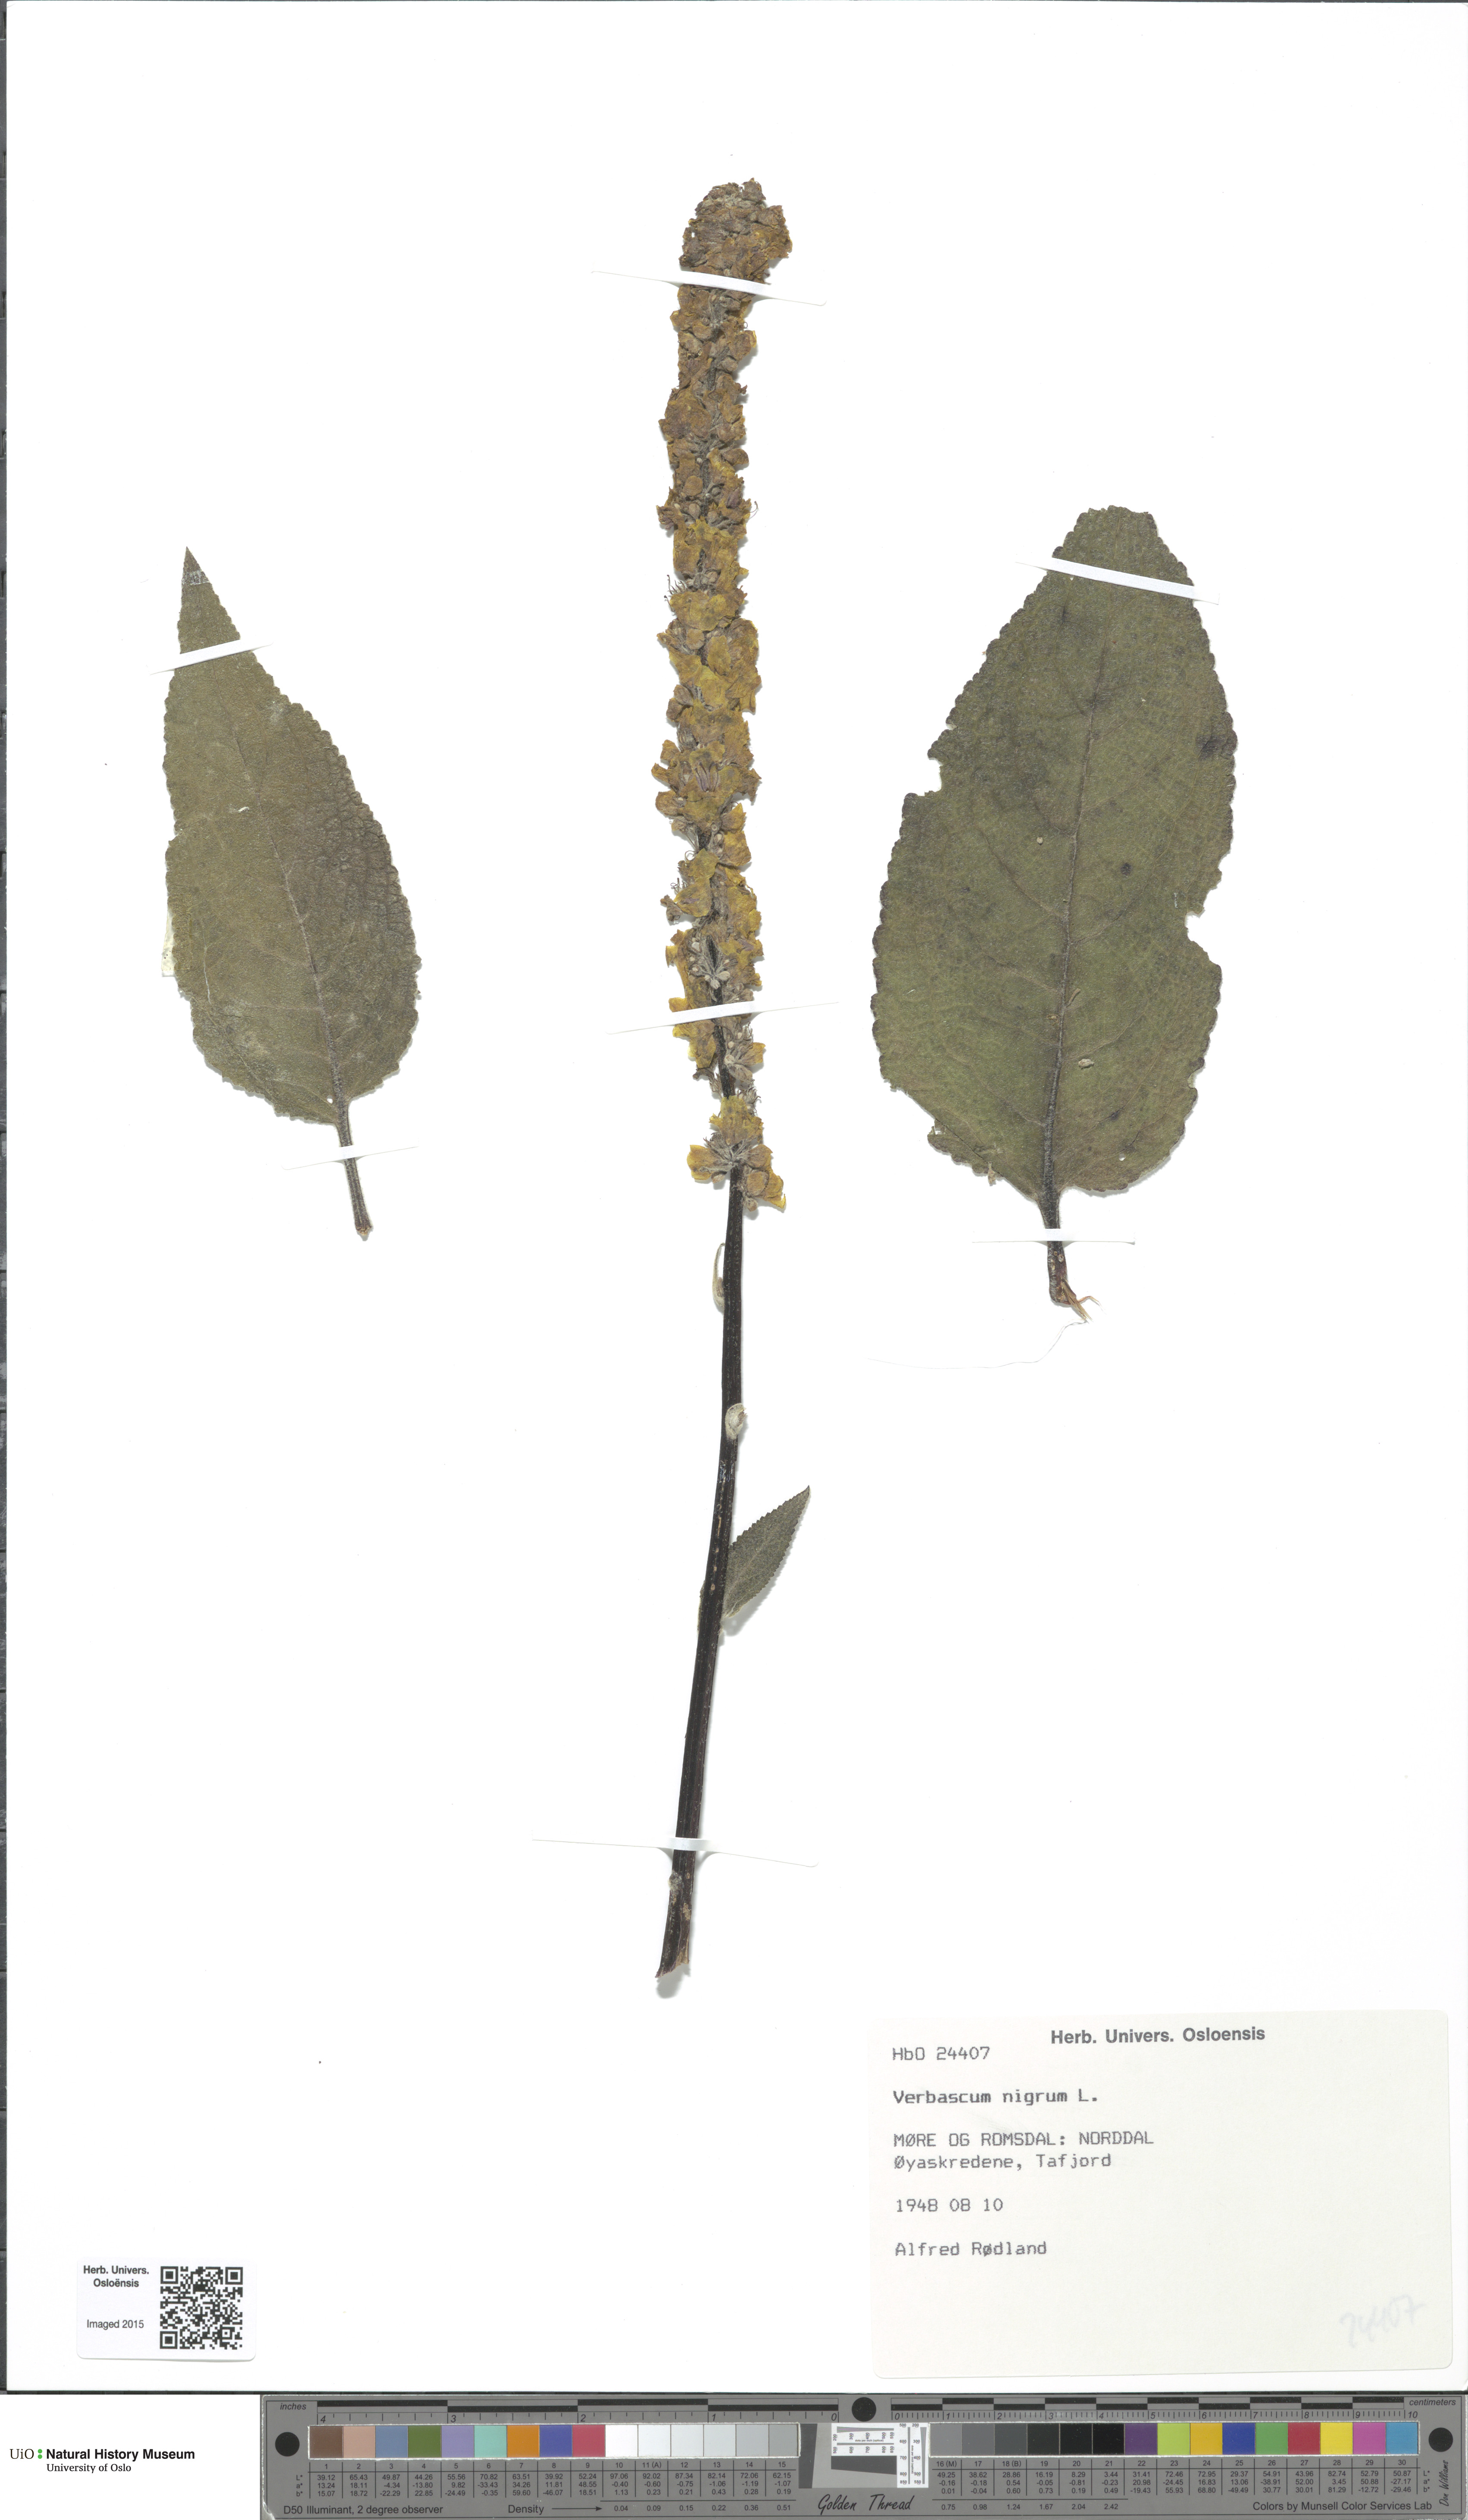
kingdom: Plantae
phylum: Tracheophyta
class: Magnoliopsida
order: Lamiales
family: Scrophulariaceae
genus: Verbascum
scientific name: Verbascum nigrum
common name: Dark mullein
